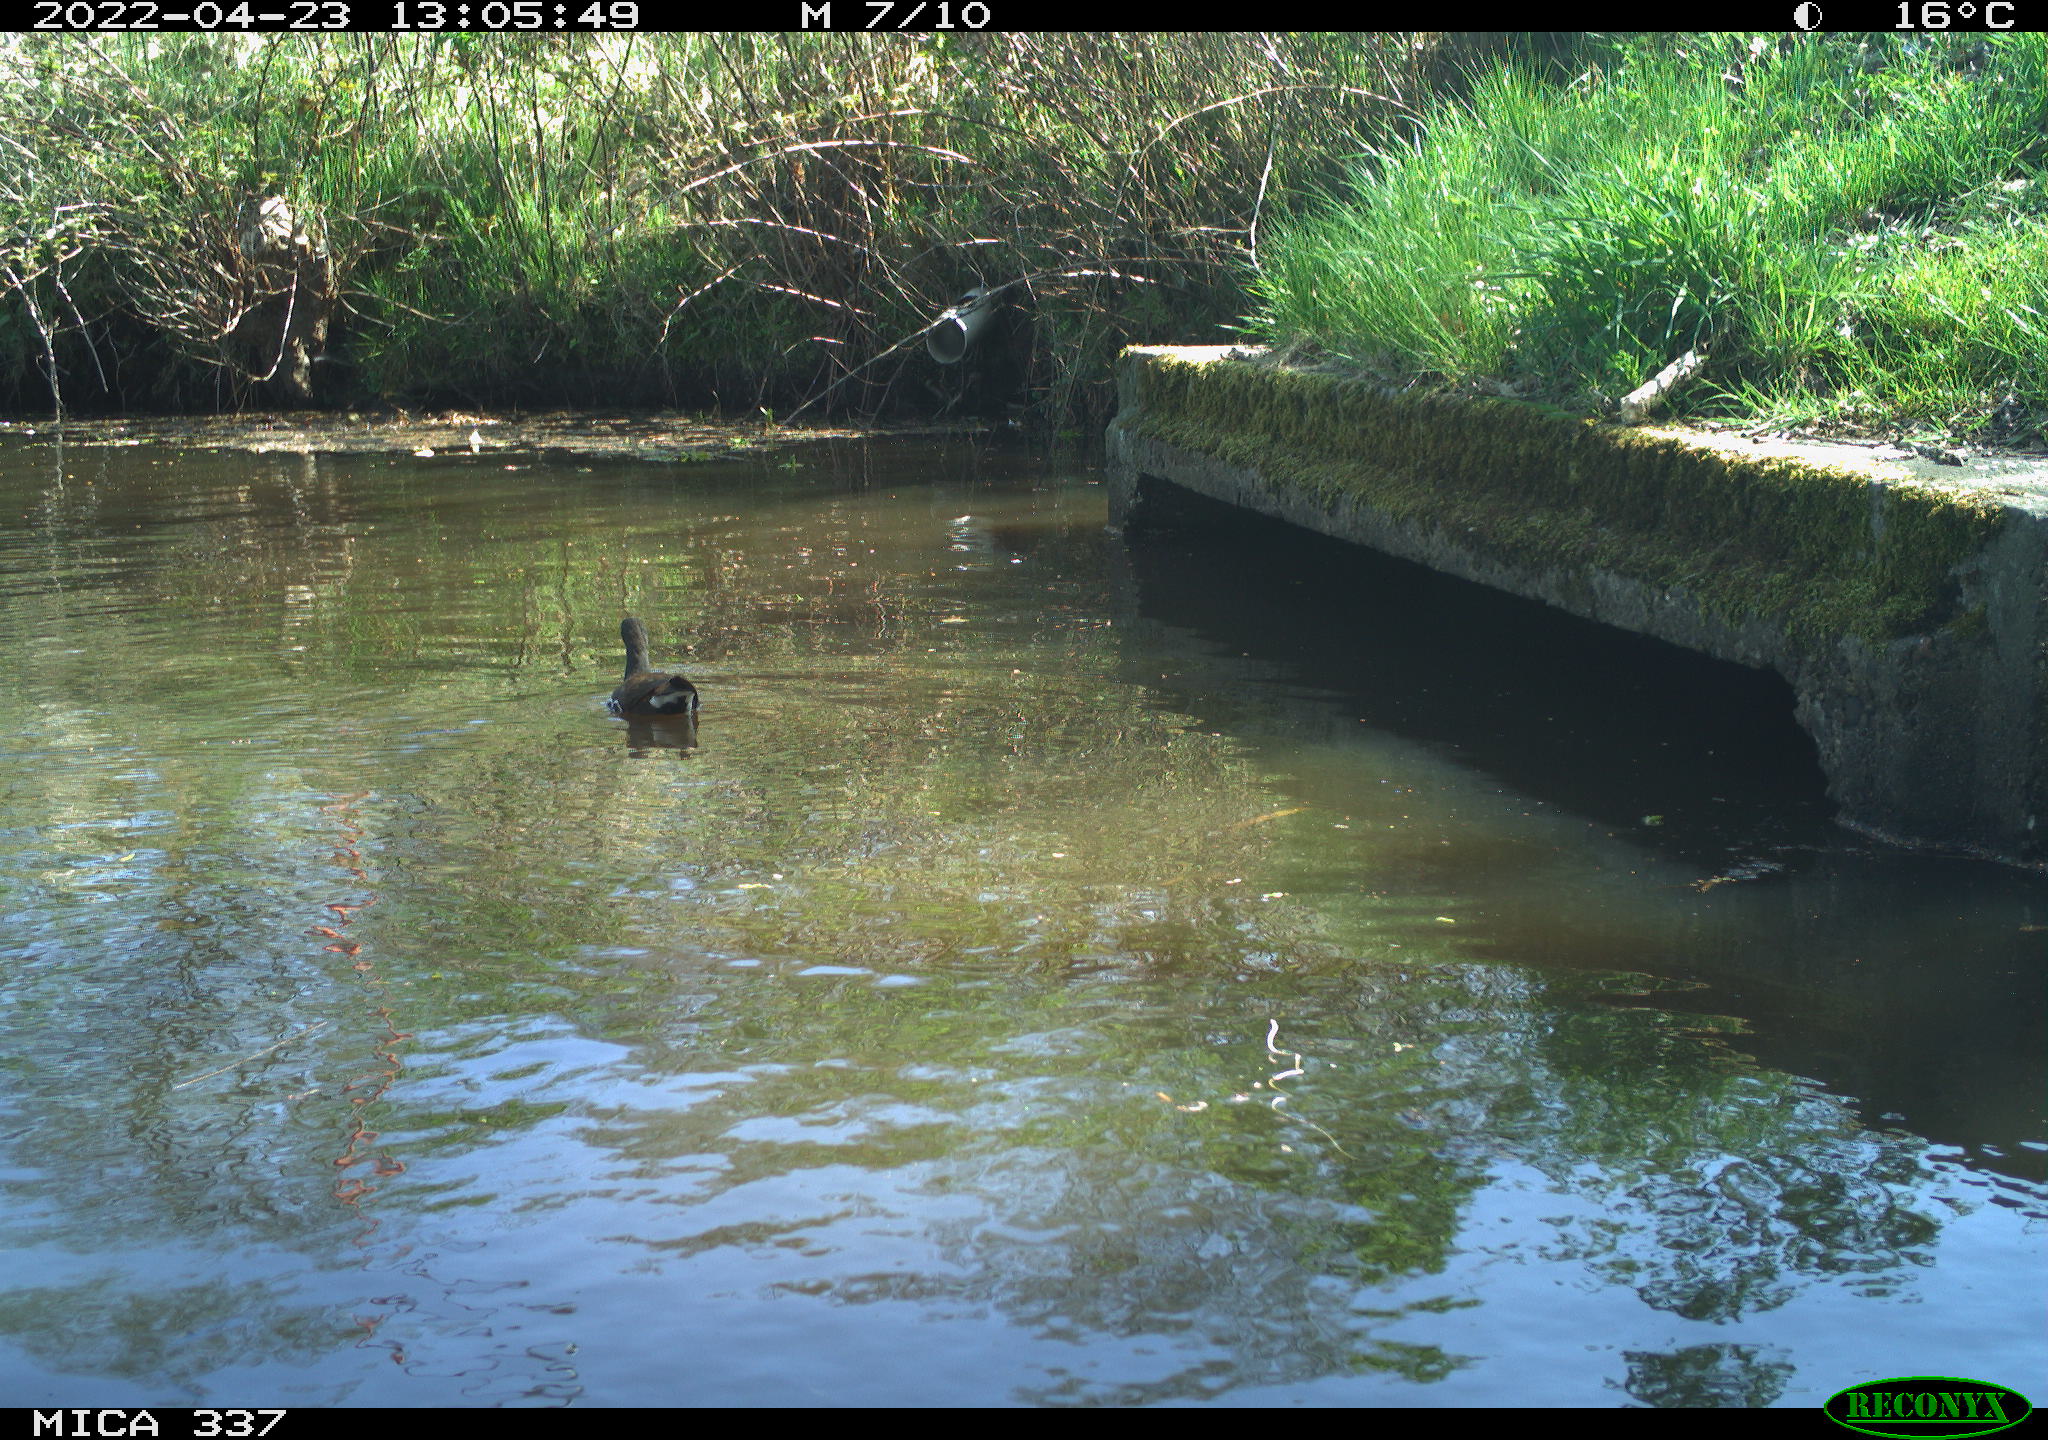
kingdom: Animalia
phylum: Chordata
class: Aves
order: Gruiformes
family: Rallidae
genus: Gallinula
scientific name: Gallinula chloropus
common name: Common moorhen
